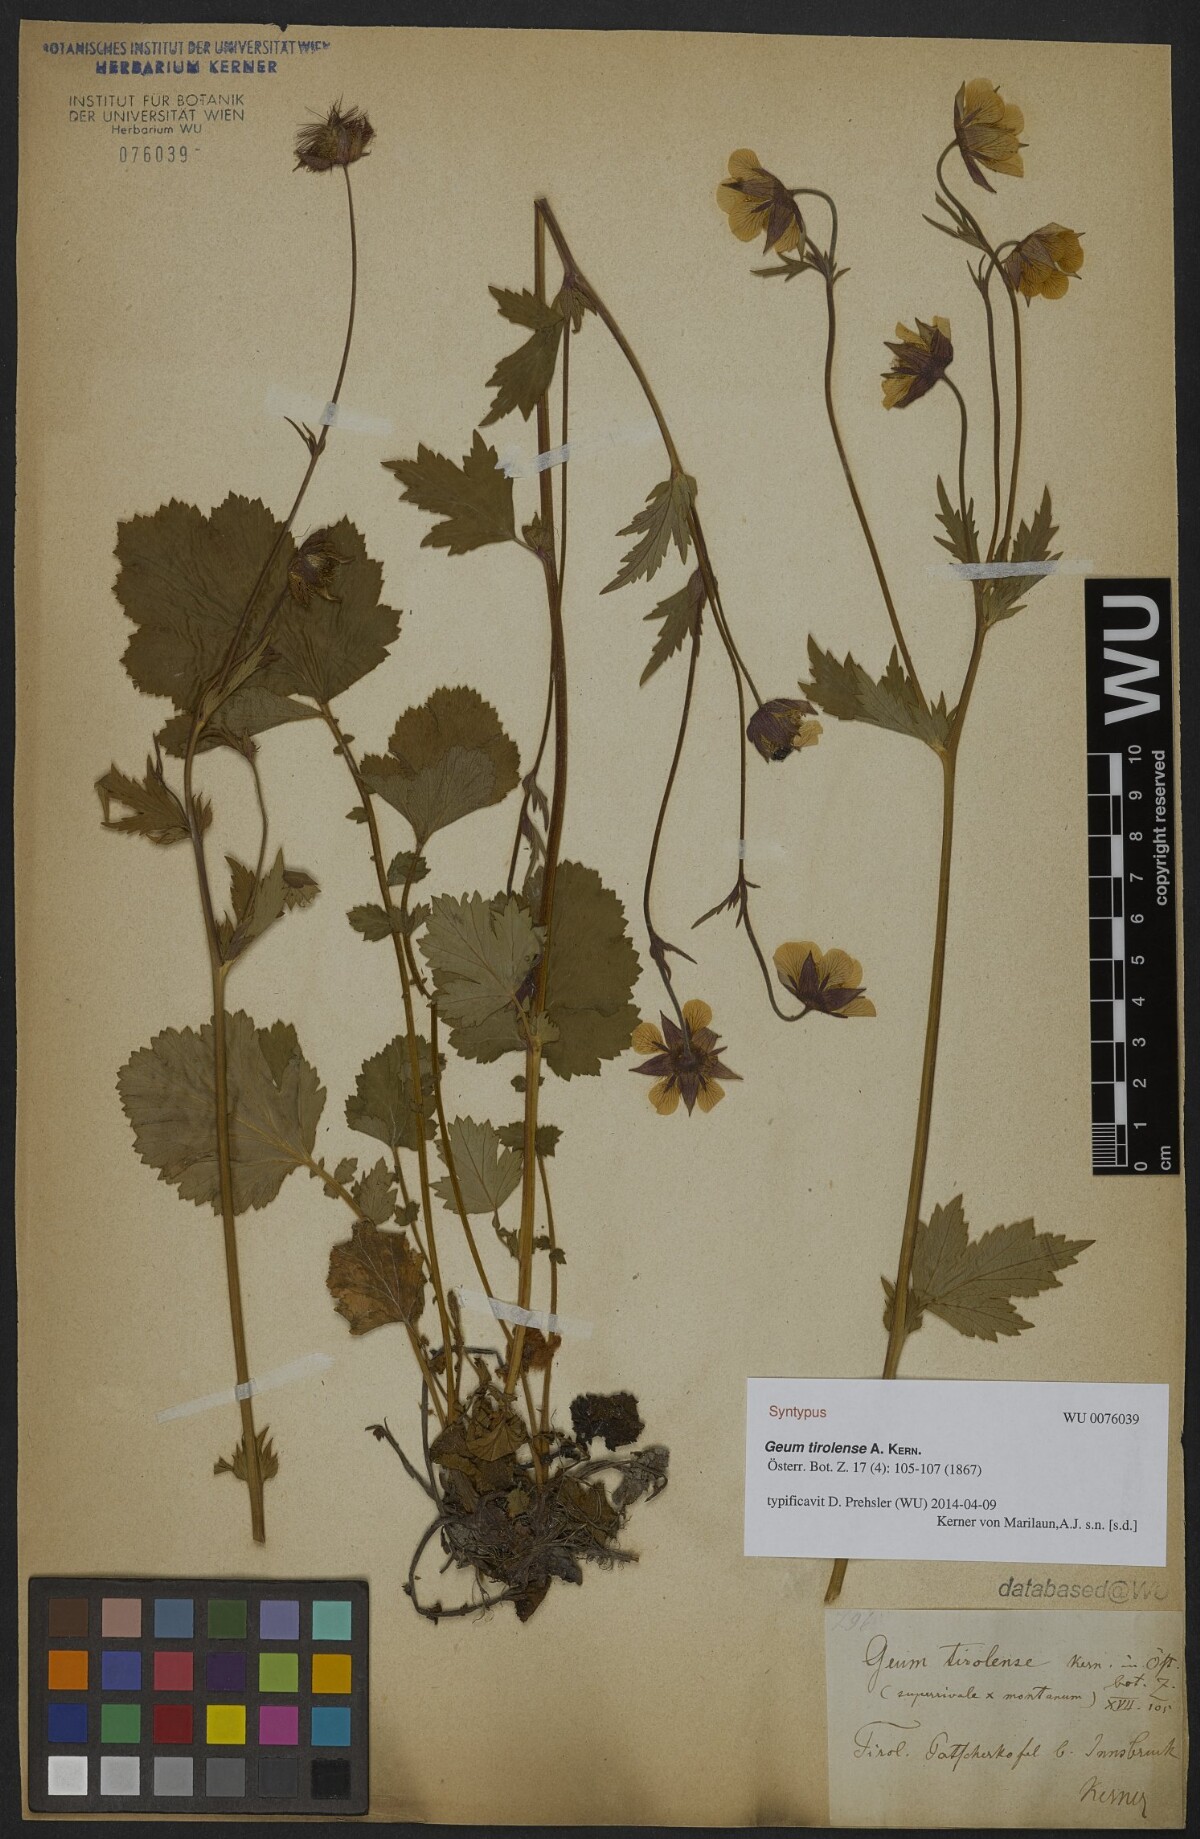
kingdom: Plantae
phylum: Tracheophyta
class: Magnoliopsida
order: Rosales
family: Rosaceae
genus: Geum
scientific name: Geum sudeticum
